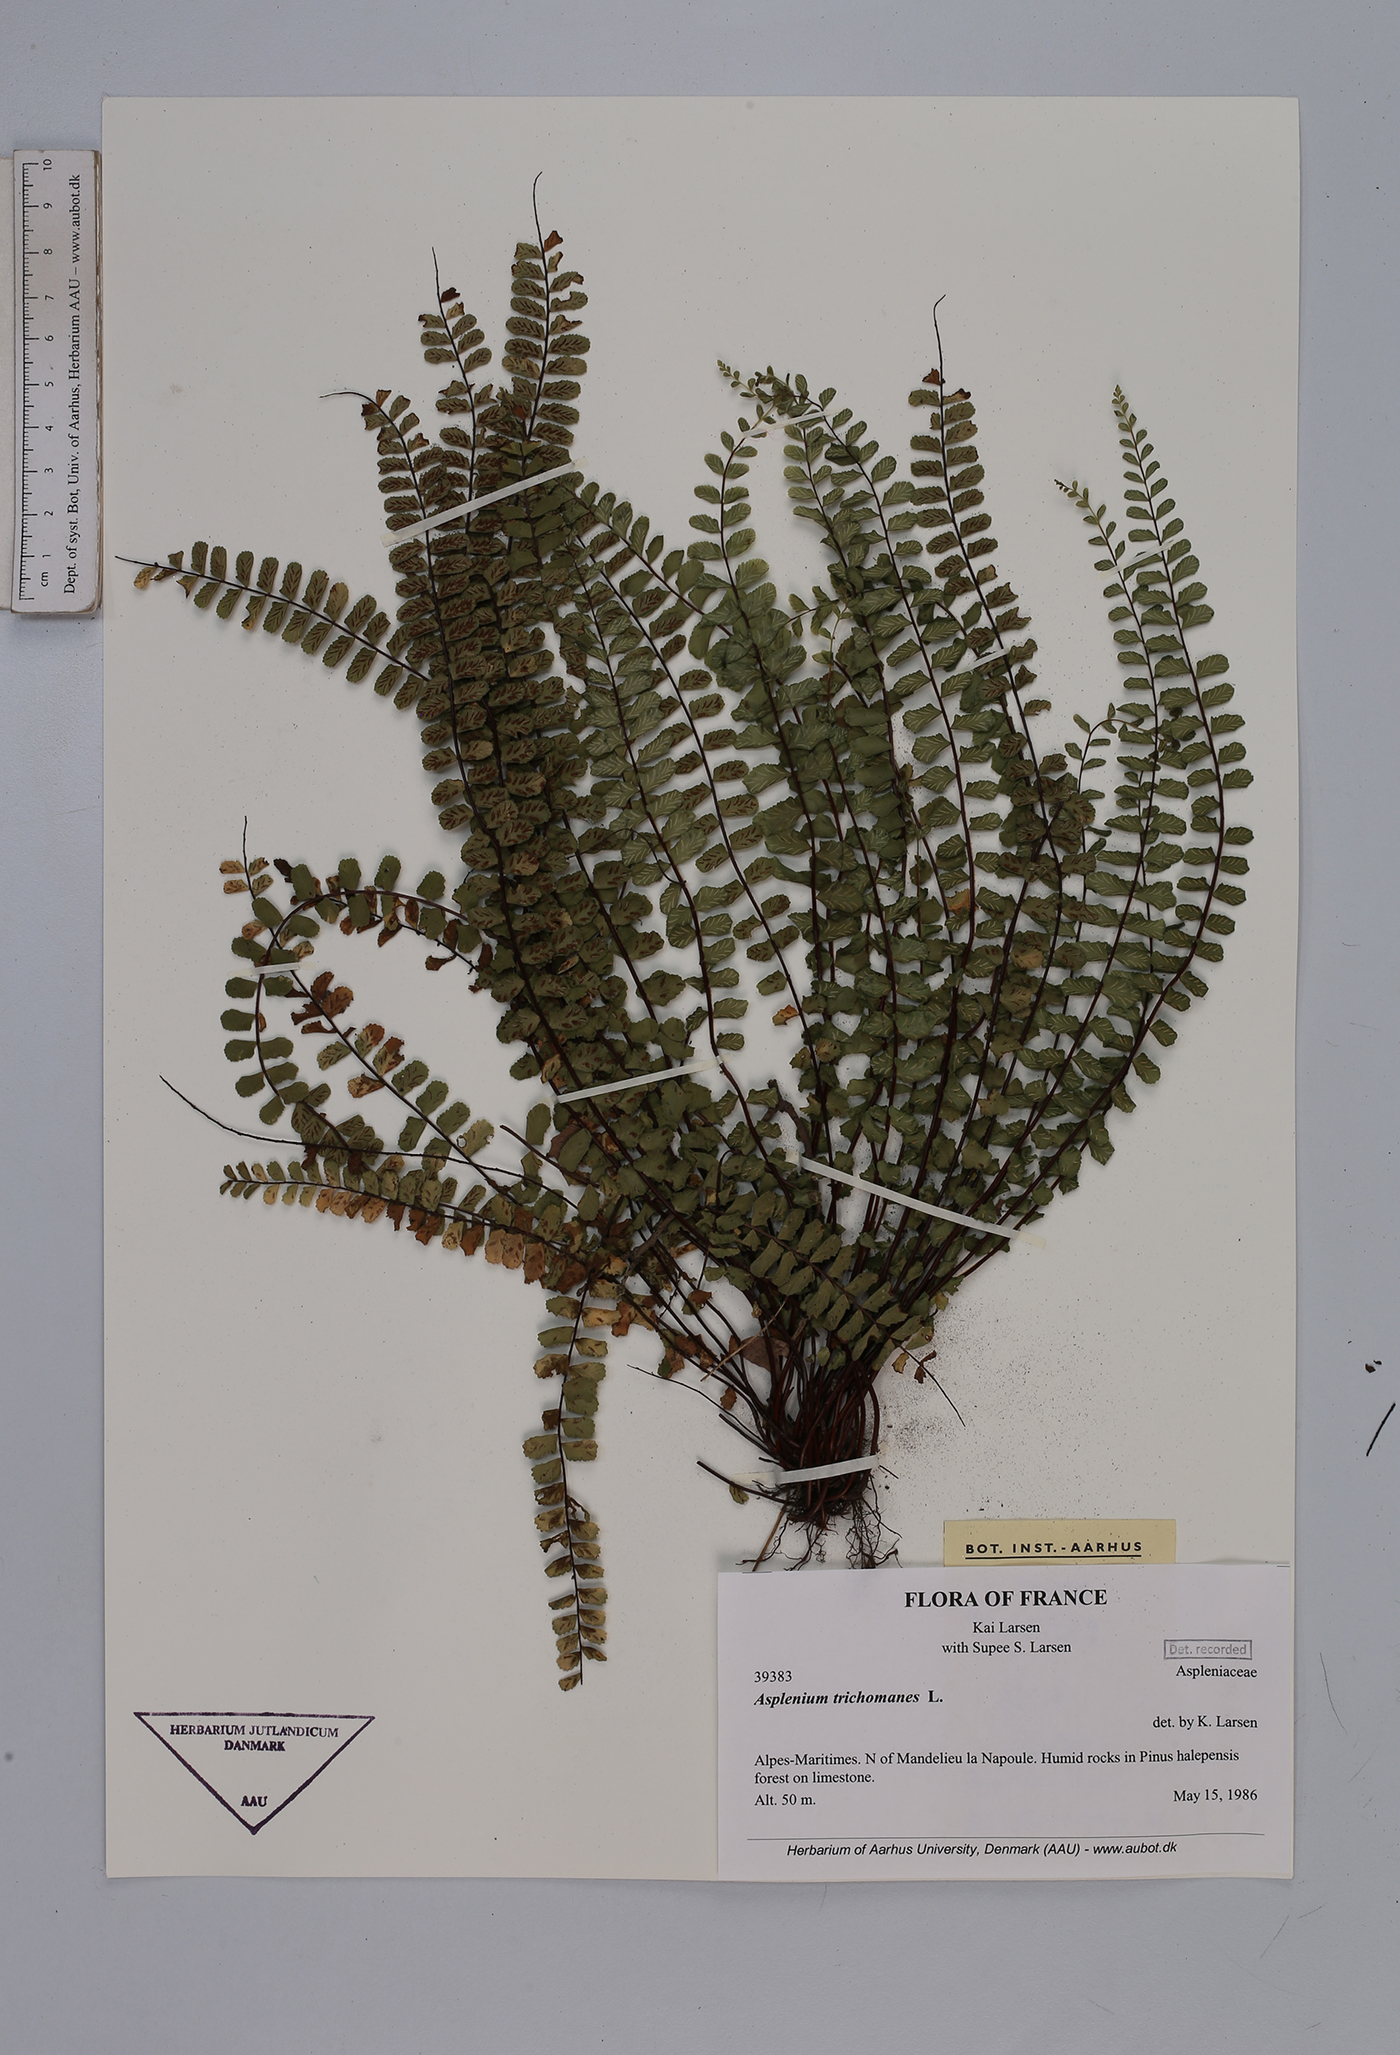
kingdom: Plantae
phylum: Tracheophyta
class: Polypodiopsida
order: Polypodiales
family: Aspleniaceae
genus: Asplenium
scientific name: Asplenium trichomanes
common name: Maidenhair spleenwort
